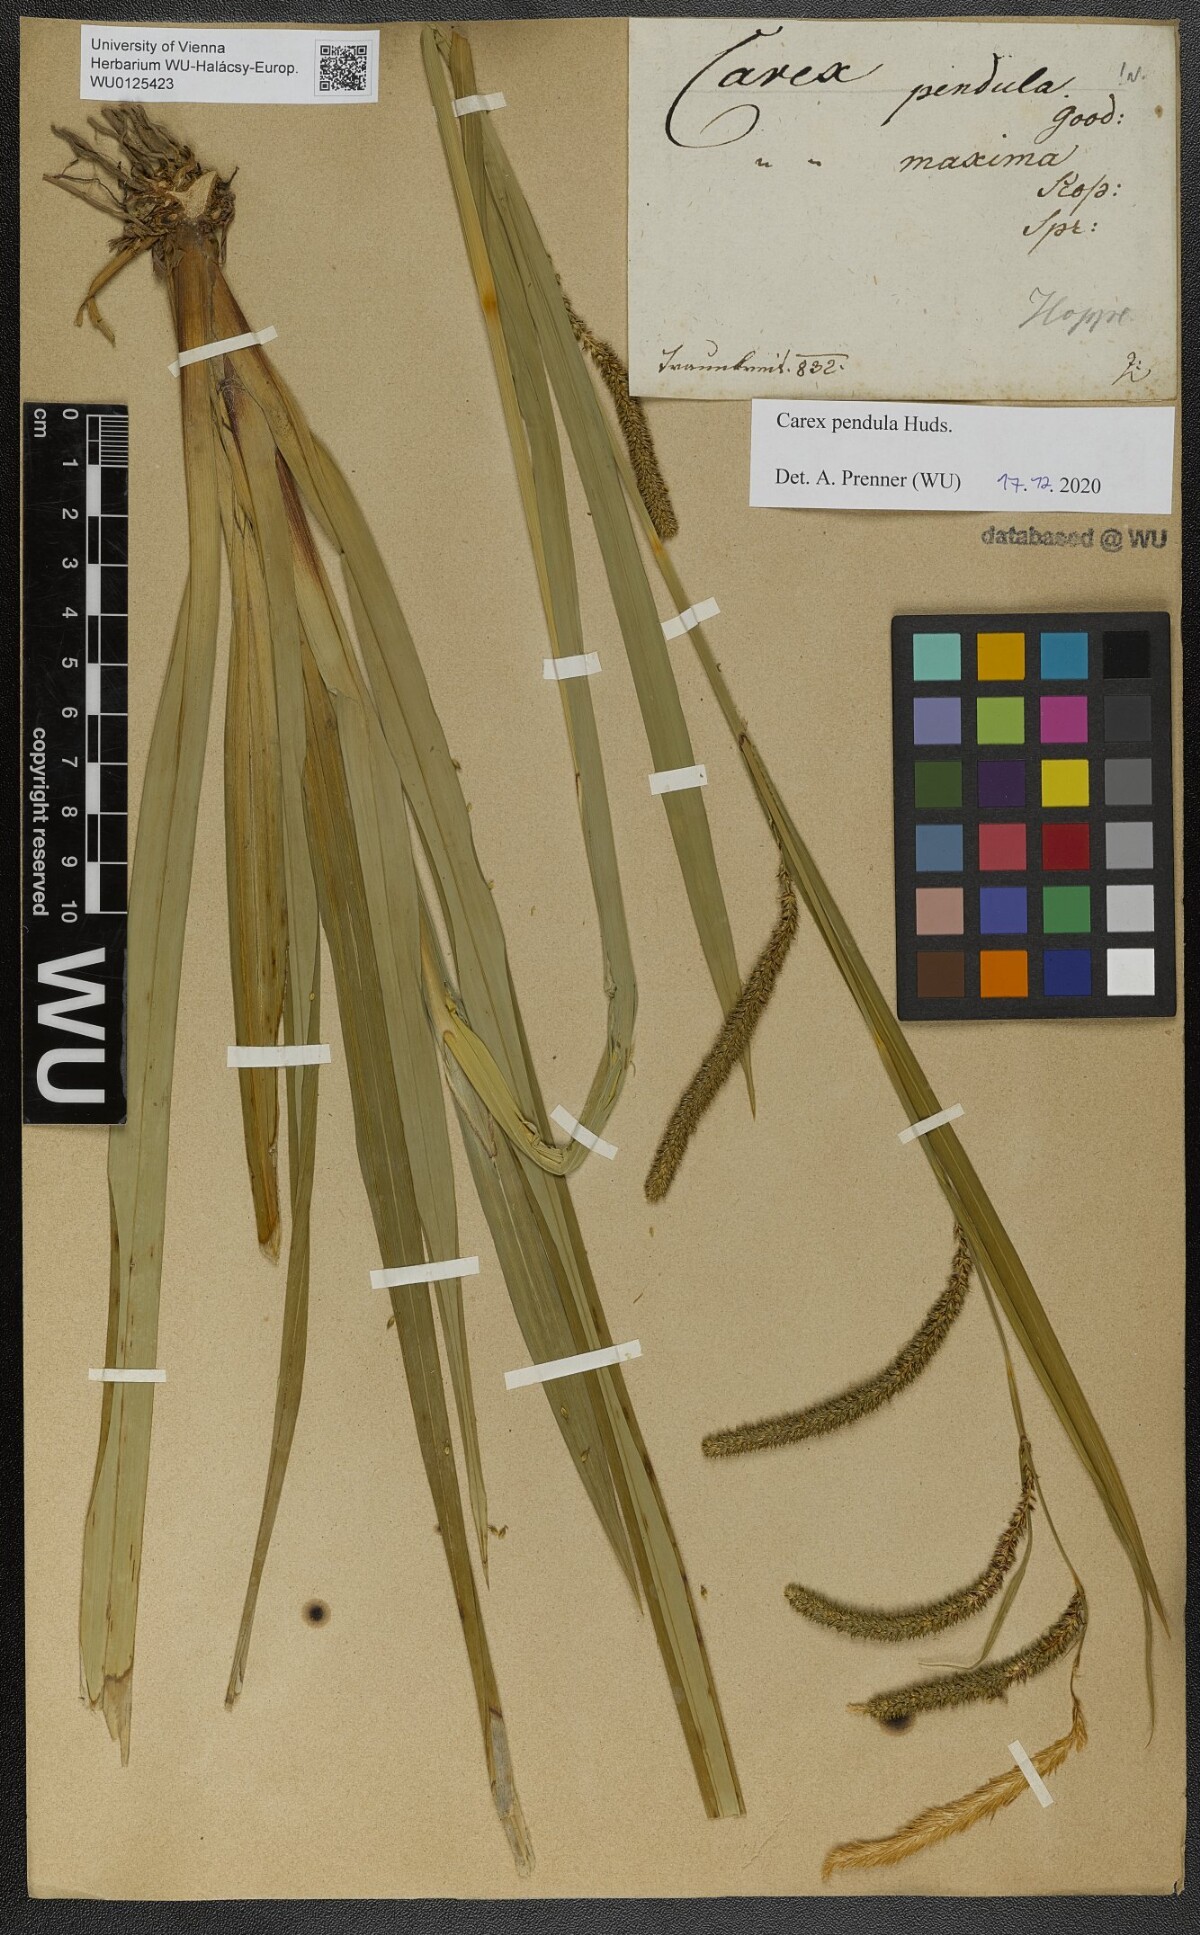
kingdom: Plantae
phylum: Tracheophyta
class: Liliopsida
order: Poales
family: Cyperaceae
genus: Carex
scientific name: Carex pendula
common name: Pendulous sedge
